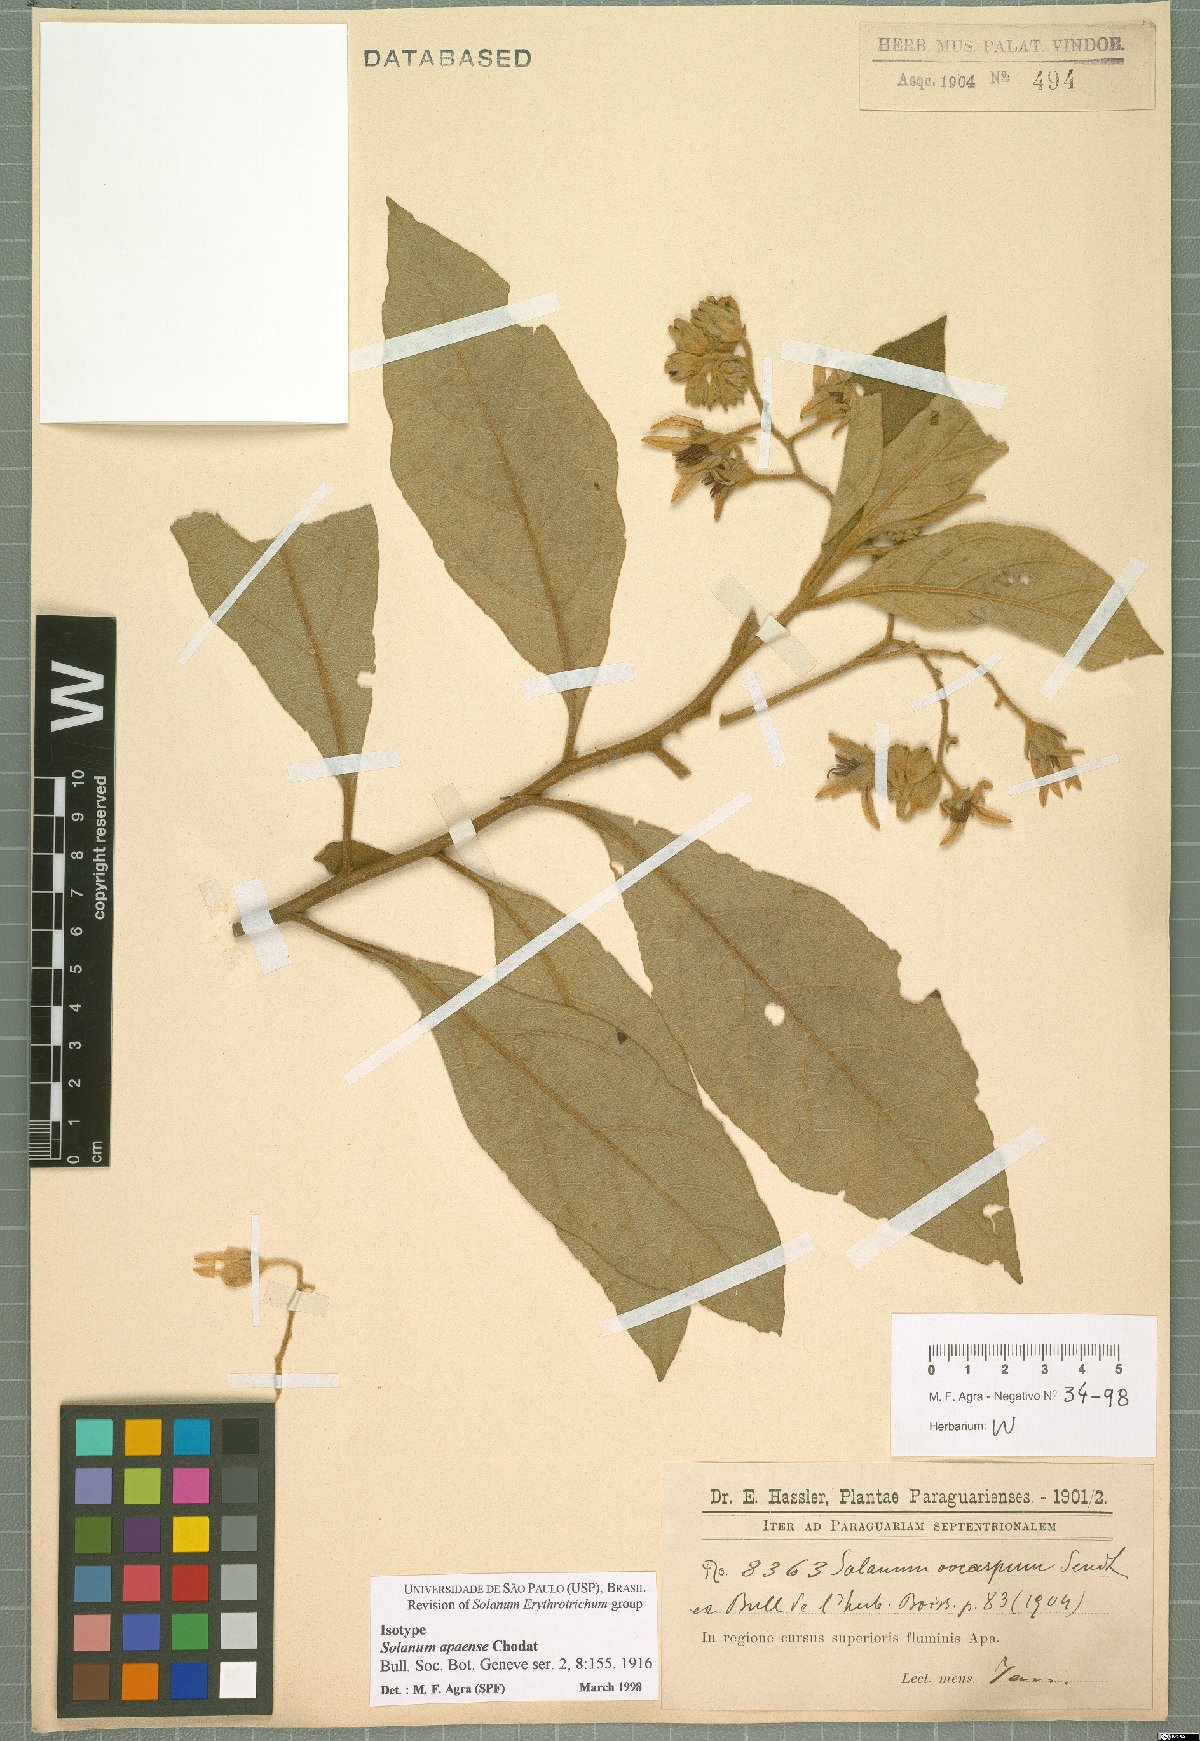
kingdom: Plantae
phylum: Tracheophyta
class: Magnoliopsida
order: Solanales
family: Solanaceae
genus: Solanum
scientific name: Solanum rhytidoandrum
